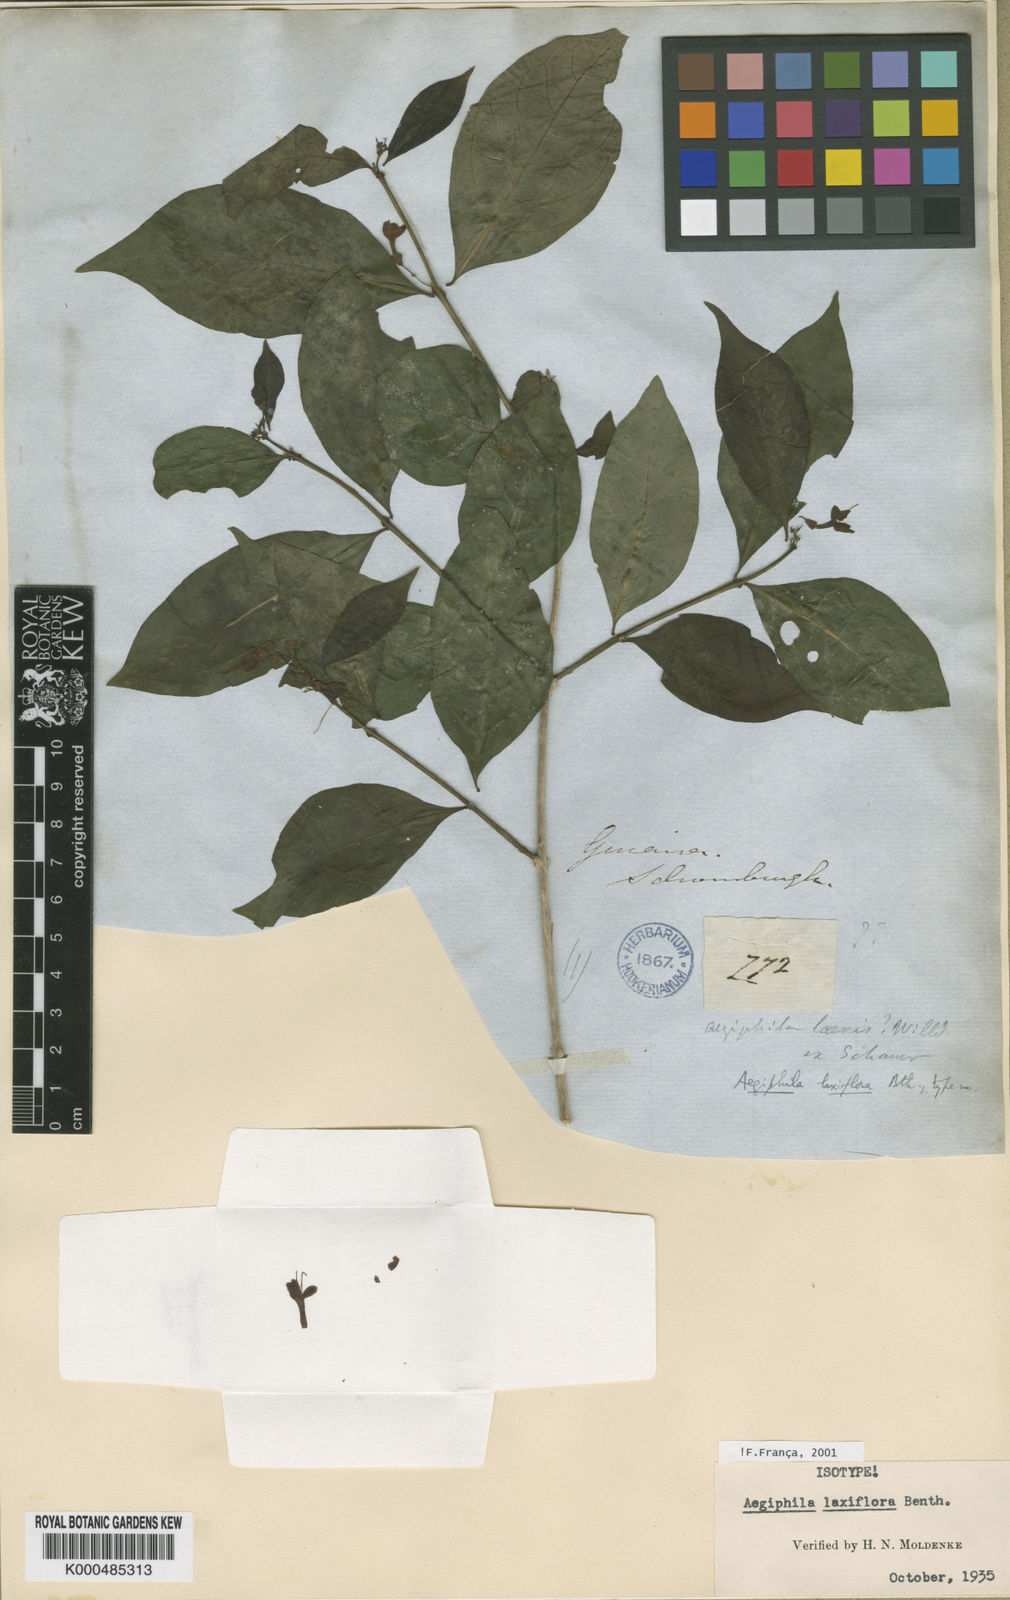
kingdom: Plantae
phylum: Tracheophyta
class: Magnoliopsida
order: Lamiales
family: Lamiaceae
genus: Aegiphila
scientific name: Aegiphila laxiflora
